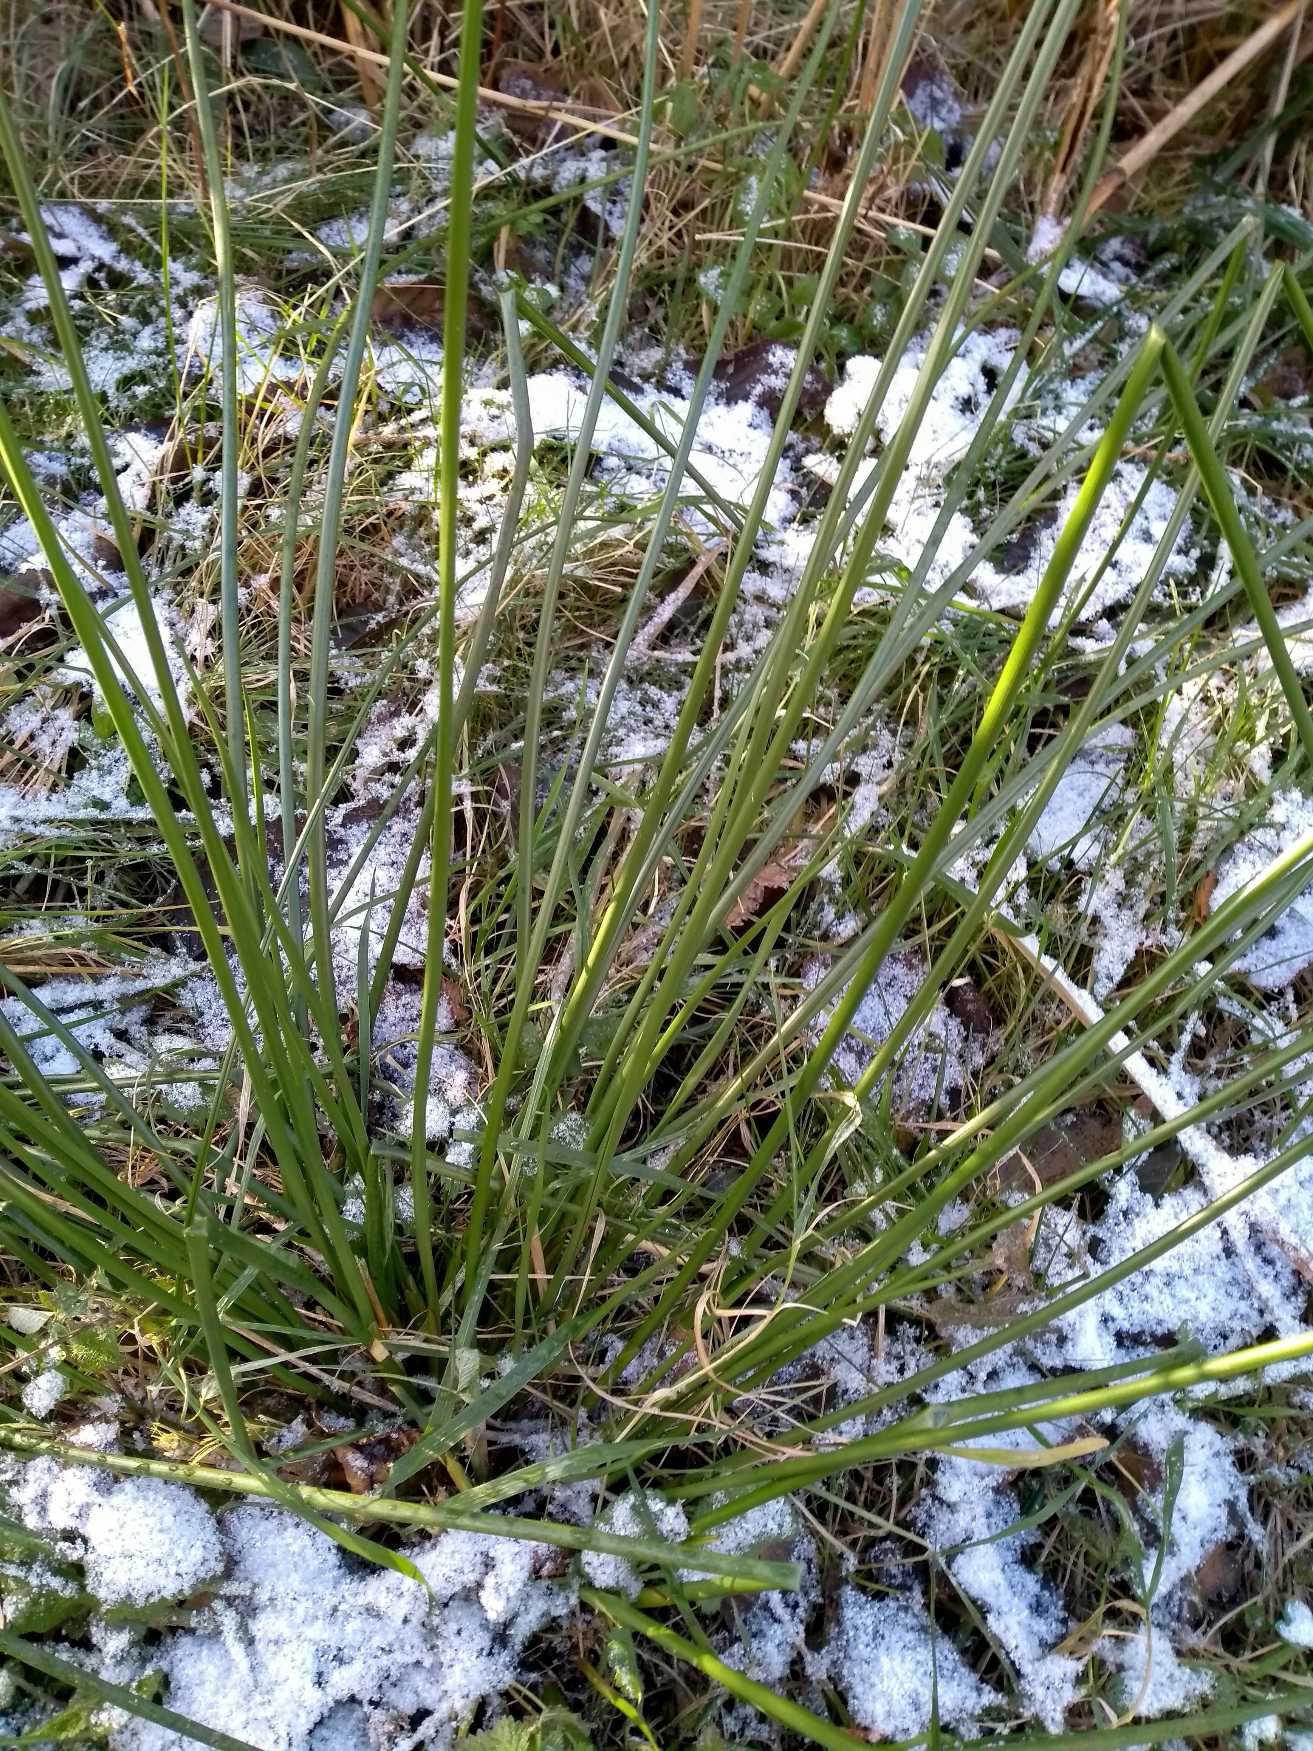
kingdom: Plantae
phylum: Tracheophyta
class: Liliopsida
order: Poales
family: Juncaceae
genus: Juncus
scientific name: Juncus
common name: Sivslægten
